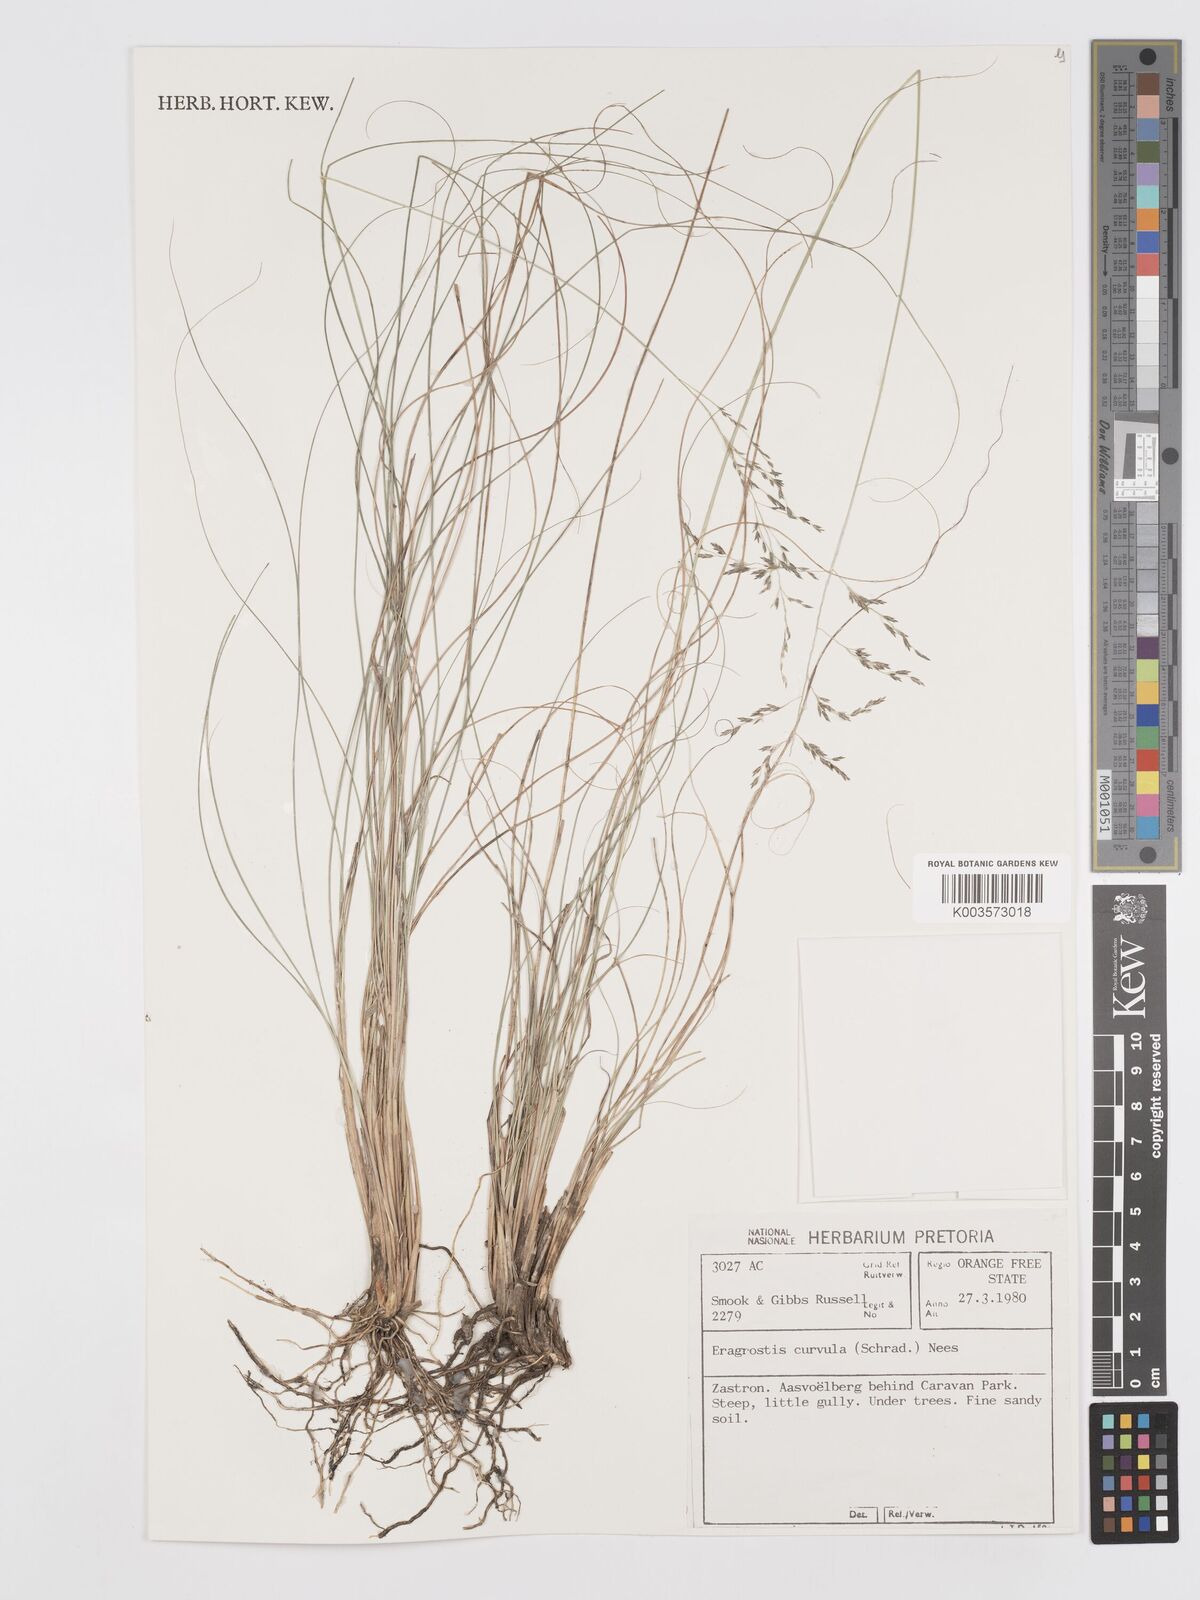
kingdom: Plantae
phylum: Tracheophyta
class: Liliopsida
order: Poales
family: Poaceae
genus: Eragrostis
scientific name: Eragrostis curvula
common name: African love-grass
